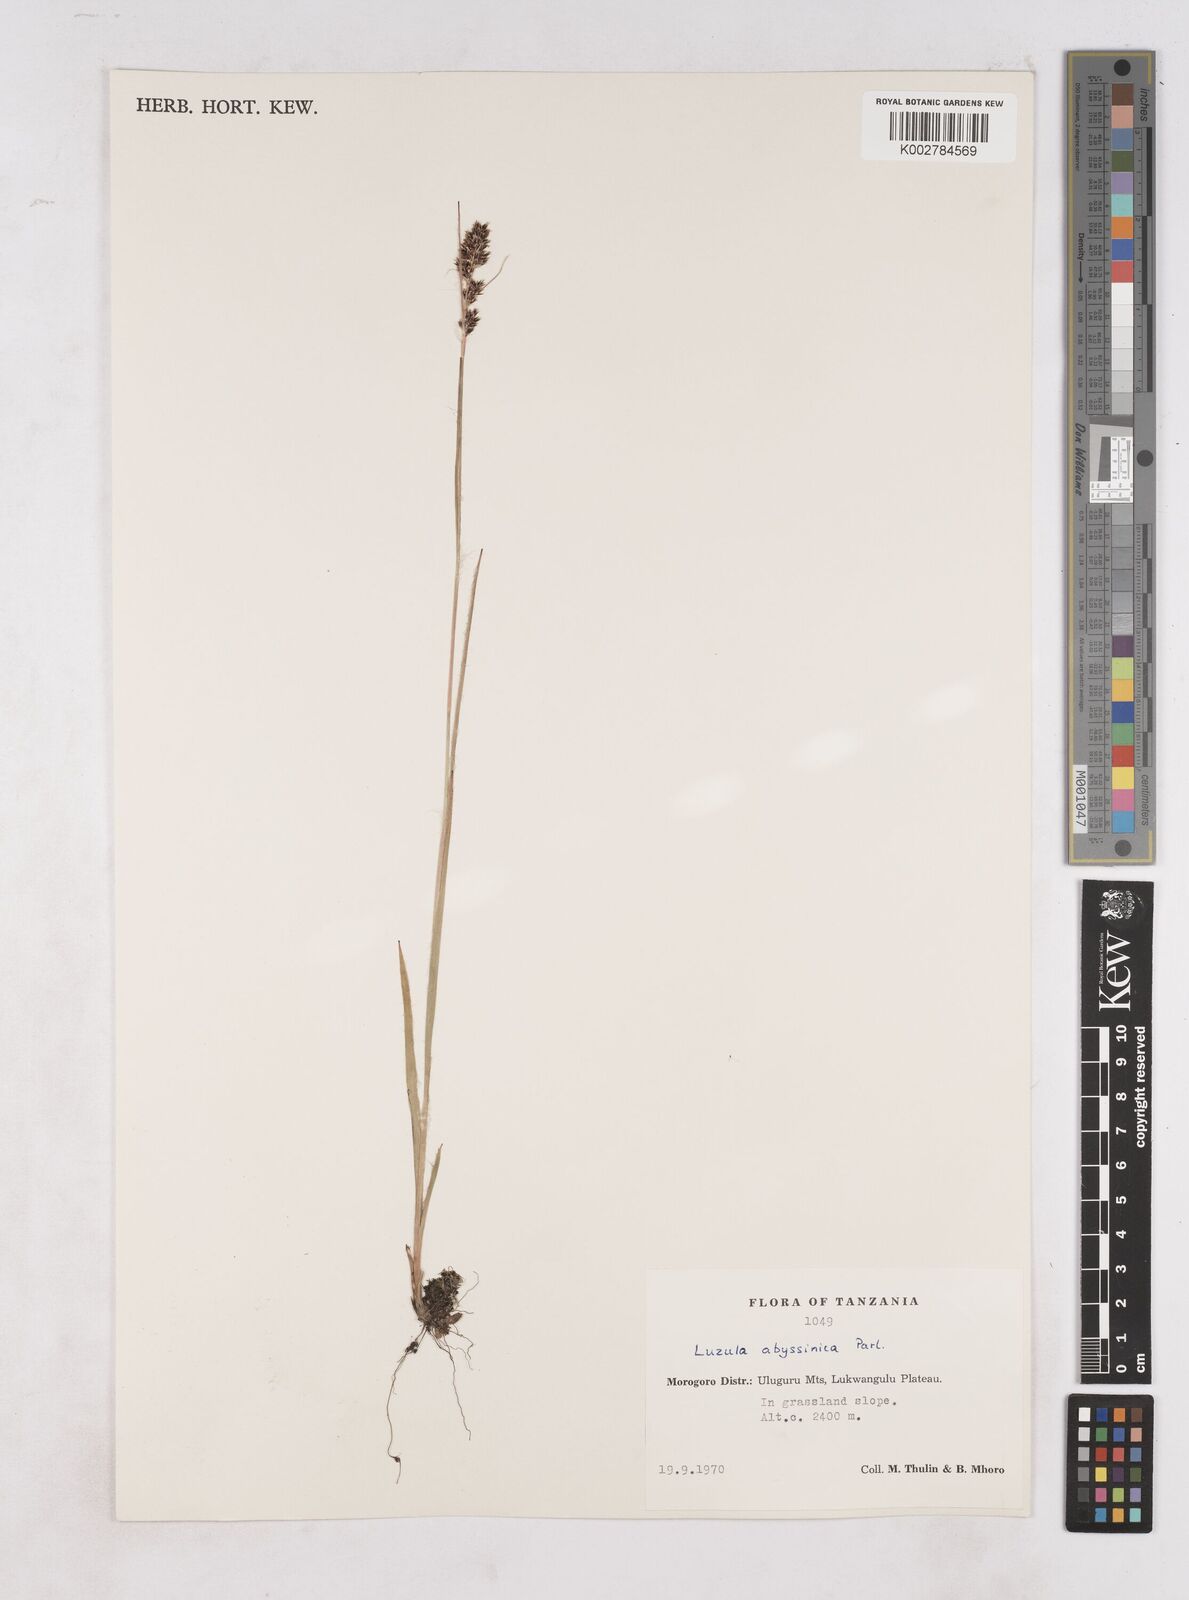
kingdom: Plantae
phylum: Tracheophyta
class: Liliopsida
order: Poales
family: Juncaceae
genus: Luzula
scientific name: Luzula abyssinica
